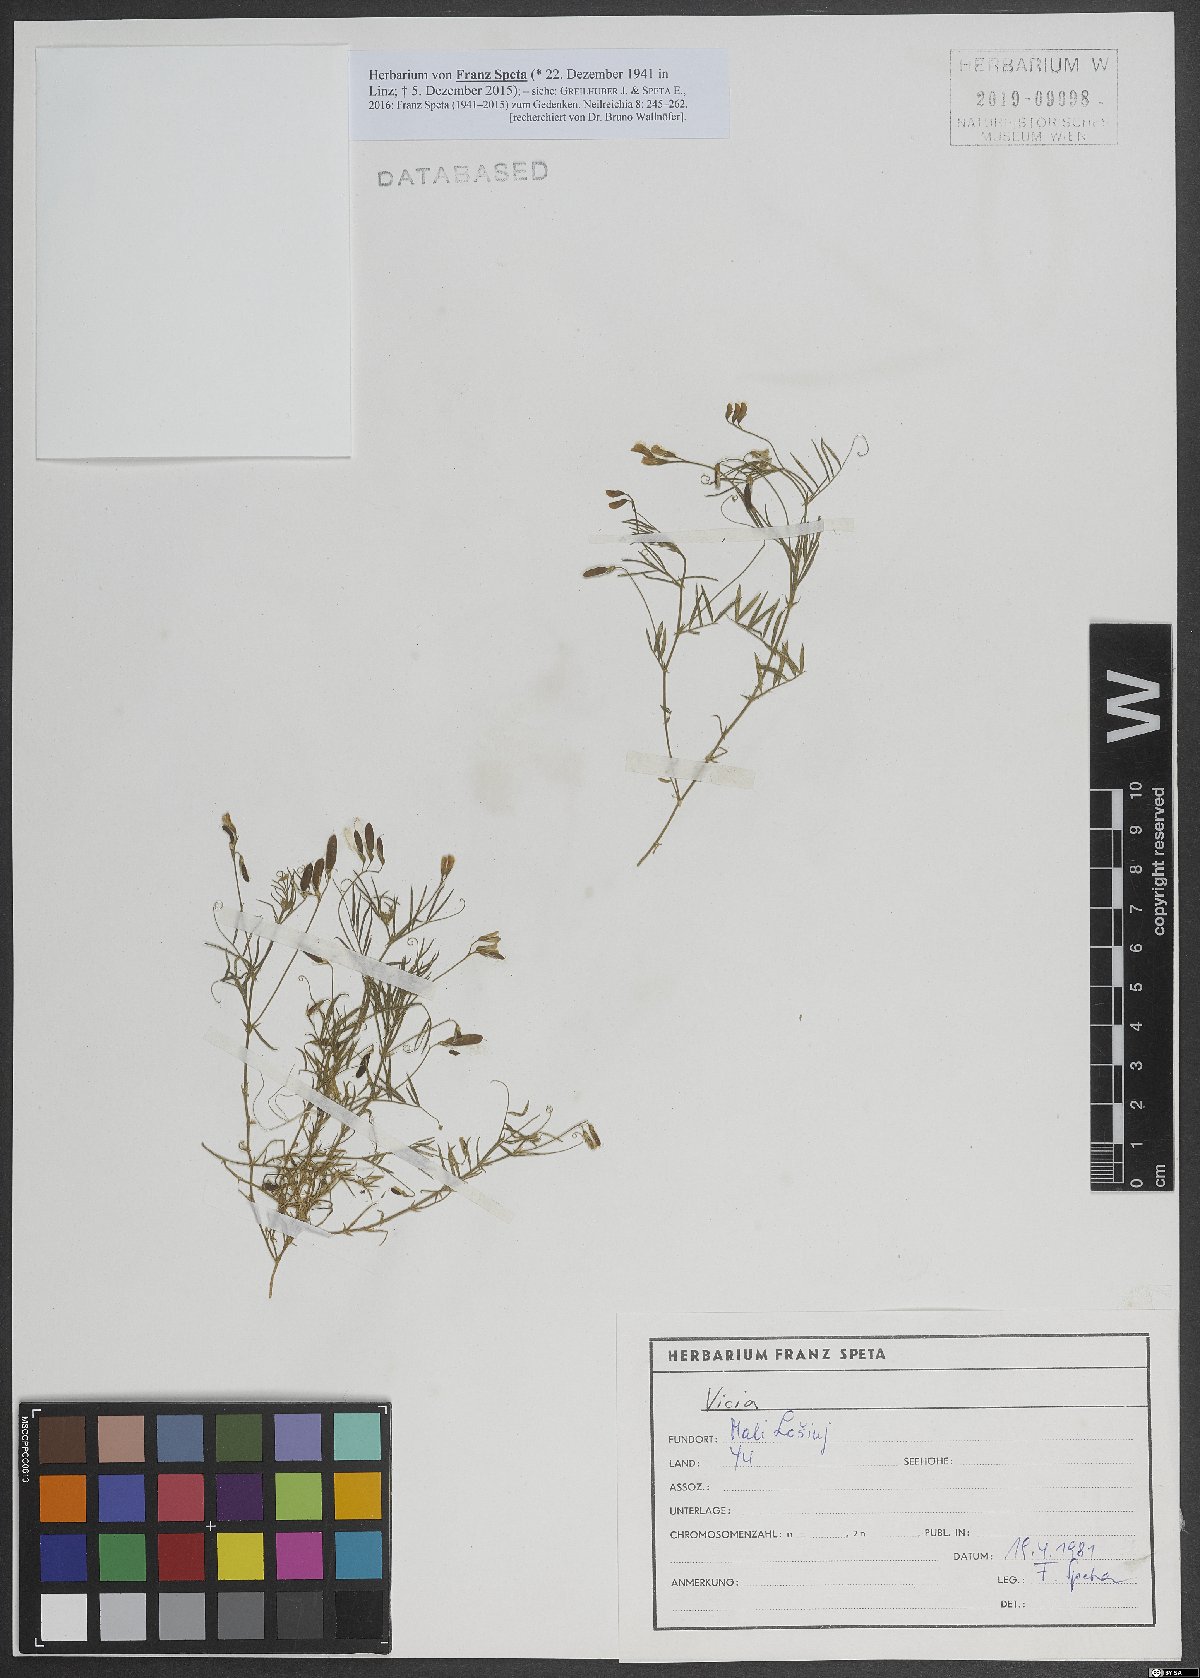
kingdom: Plantae
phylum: Tracheophyta
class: Magnoliopsida
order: Fabales
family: Fabaceae
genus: Vicia
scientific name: Vicia
